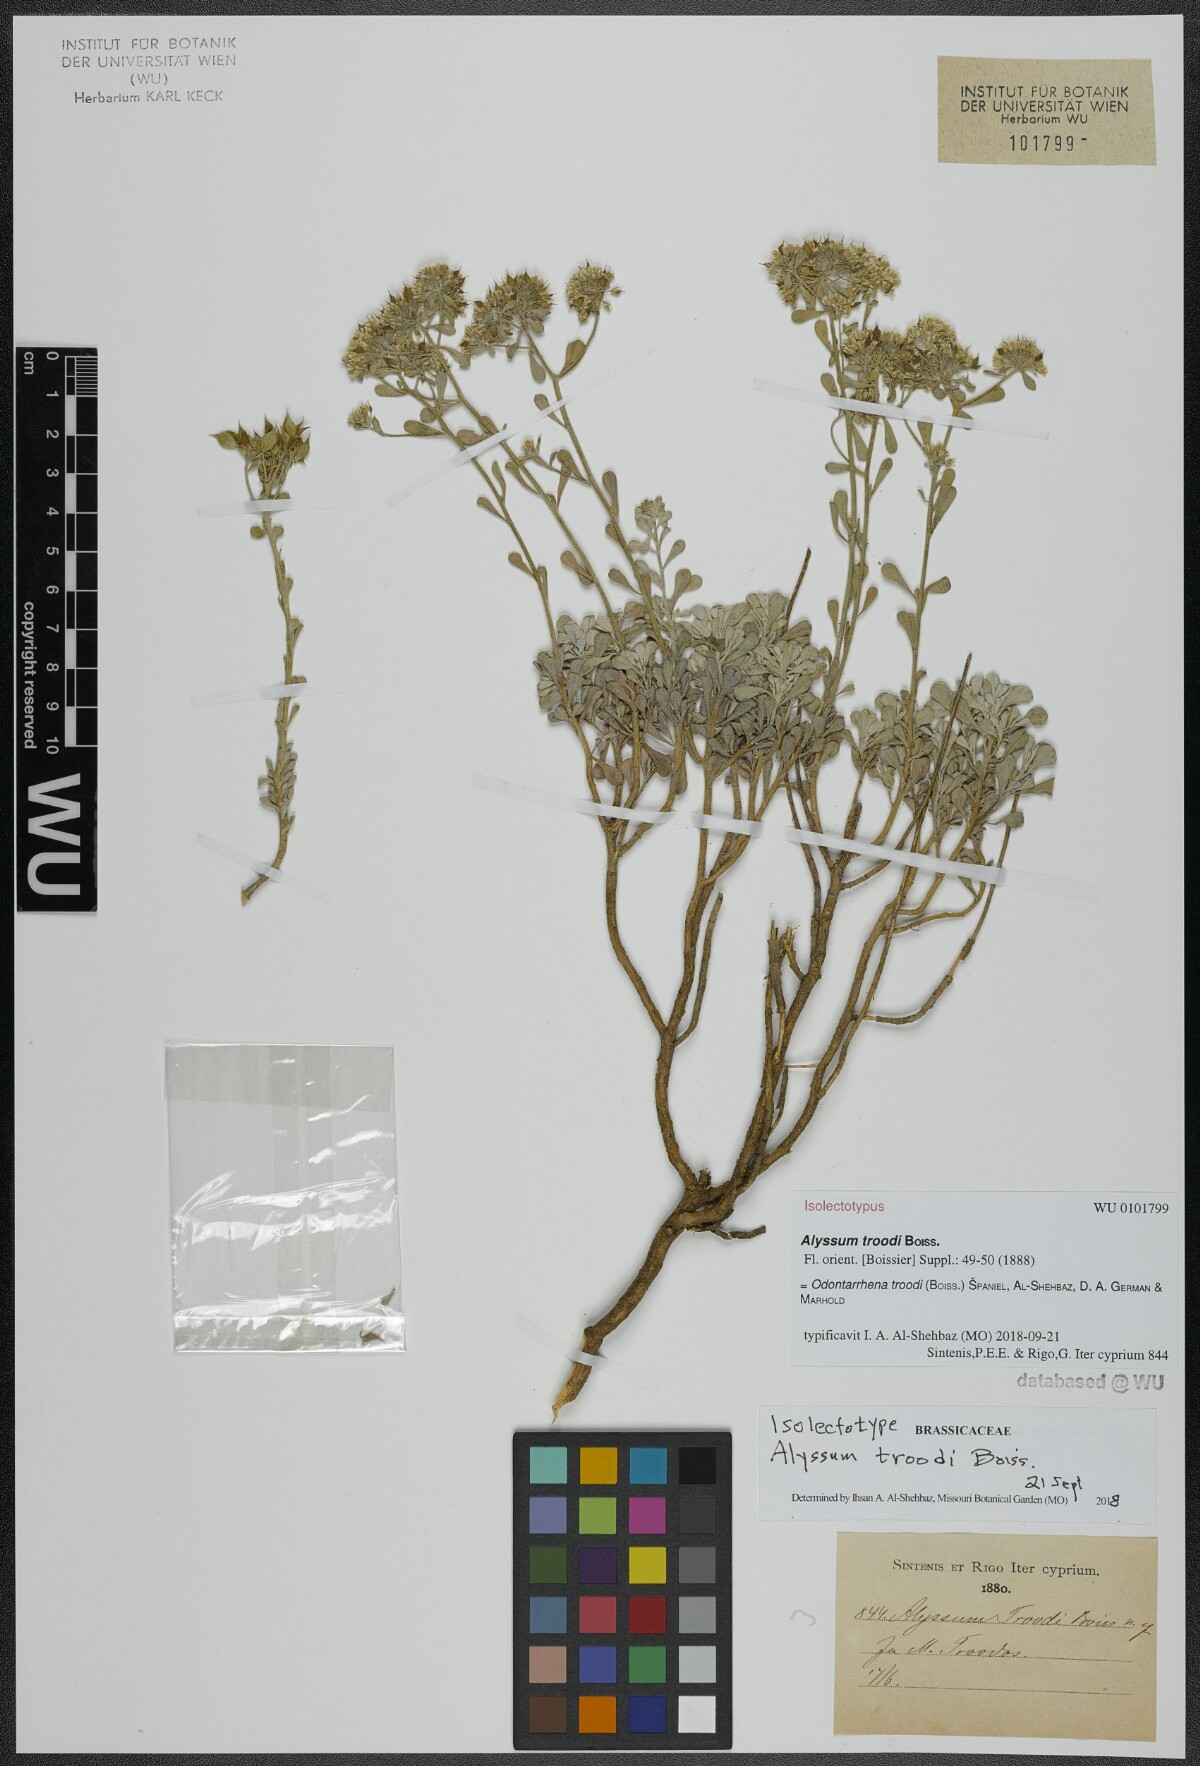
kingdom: Plantae
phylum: Tracheophyta
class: Magnoliopsida
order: Brassicales
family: Brassicaceae
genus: Odontarrhena
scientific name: Odontarrhena troodi
